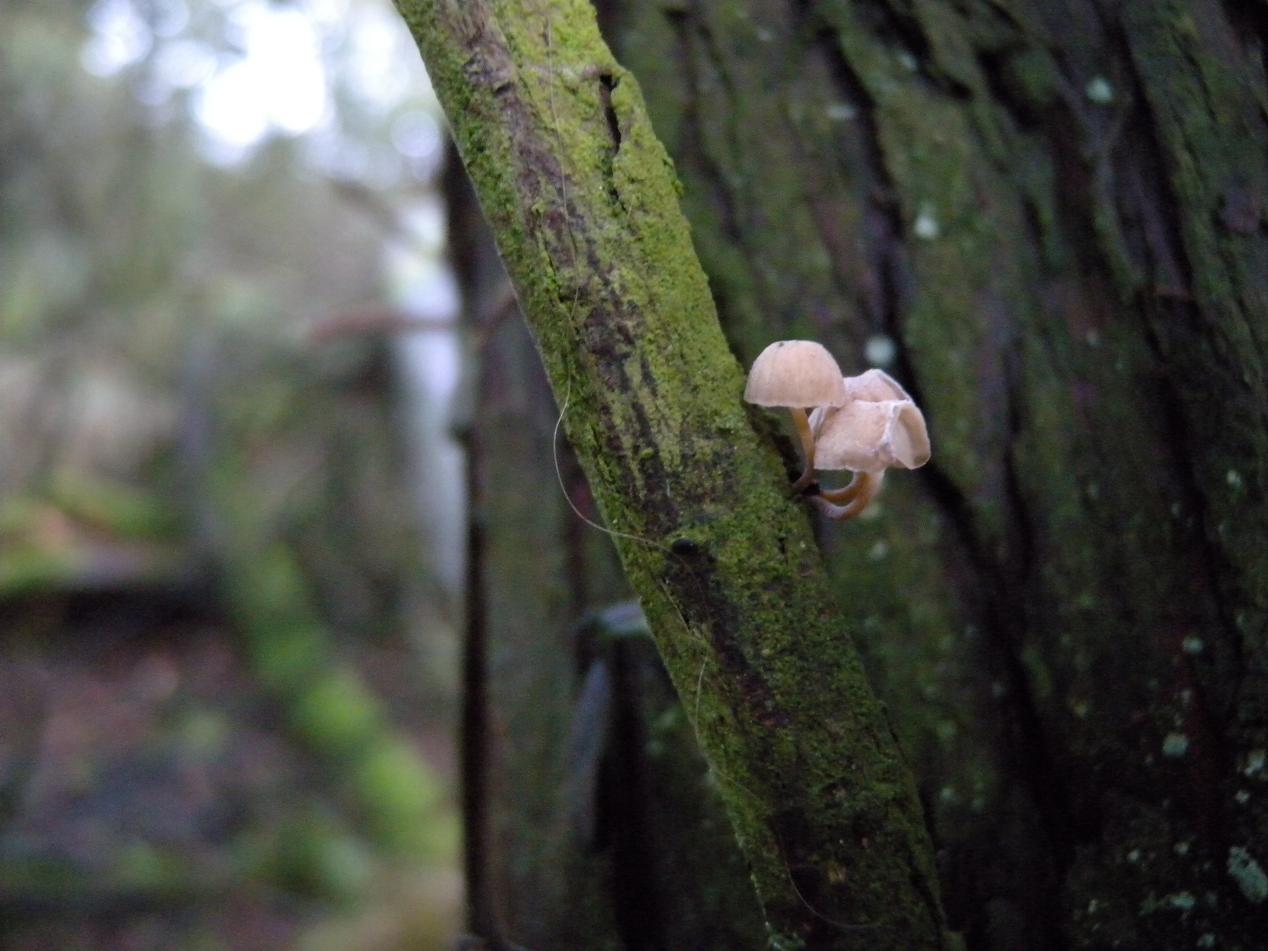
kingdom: Fungi
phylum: Basidiomycota
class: Agaricomycetes
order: Agaricales
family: Mycenaceae
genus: Mycena
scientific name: Mycena juniperina
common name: ene-Huesvamp
